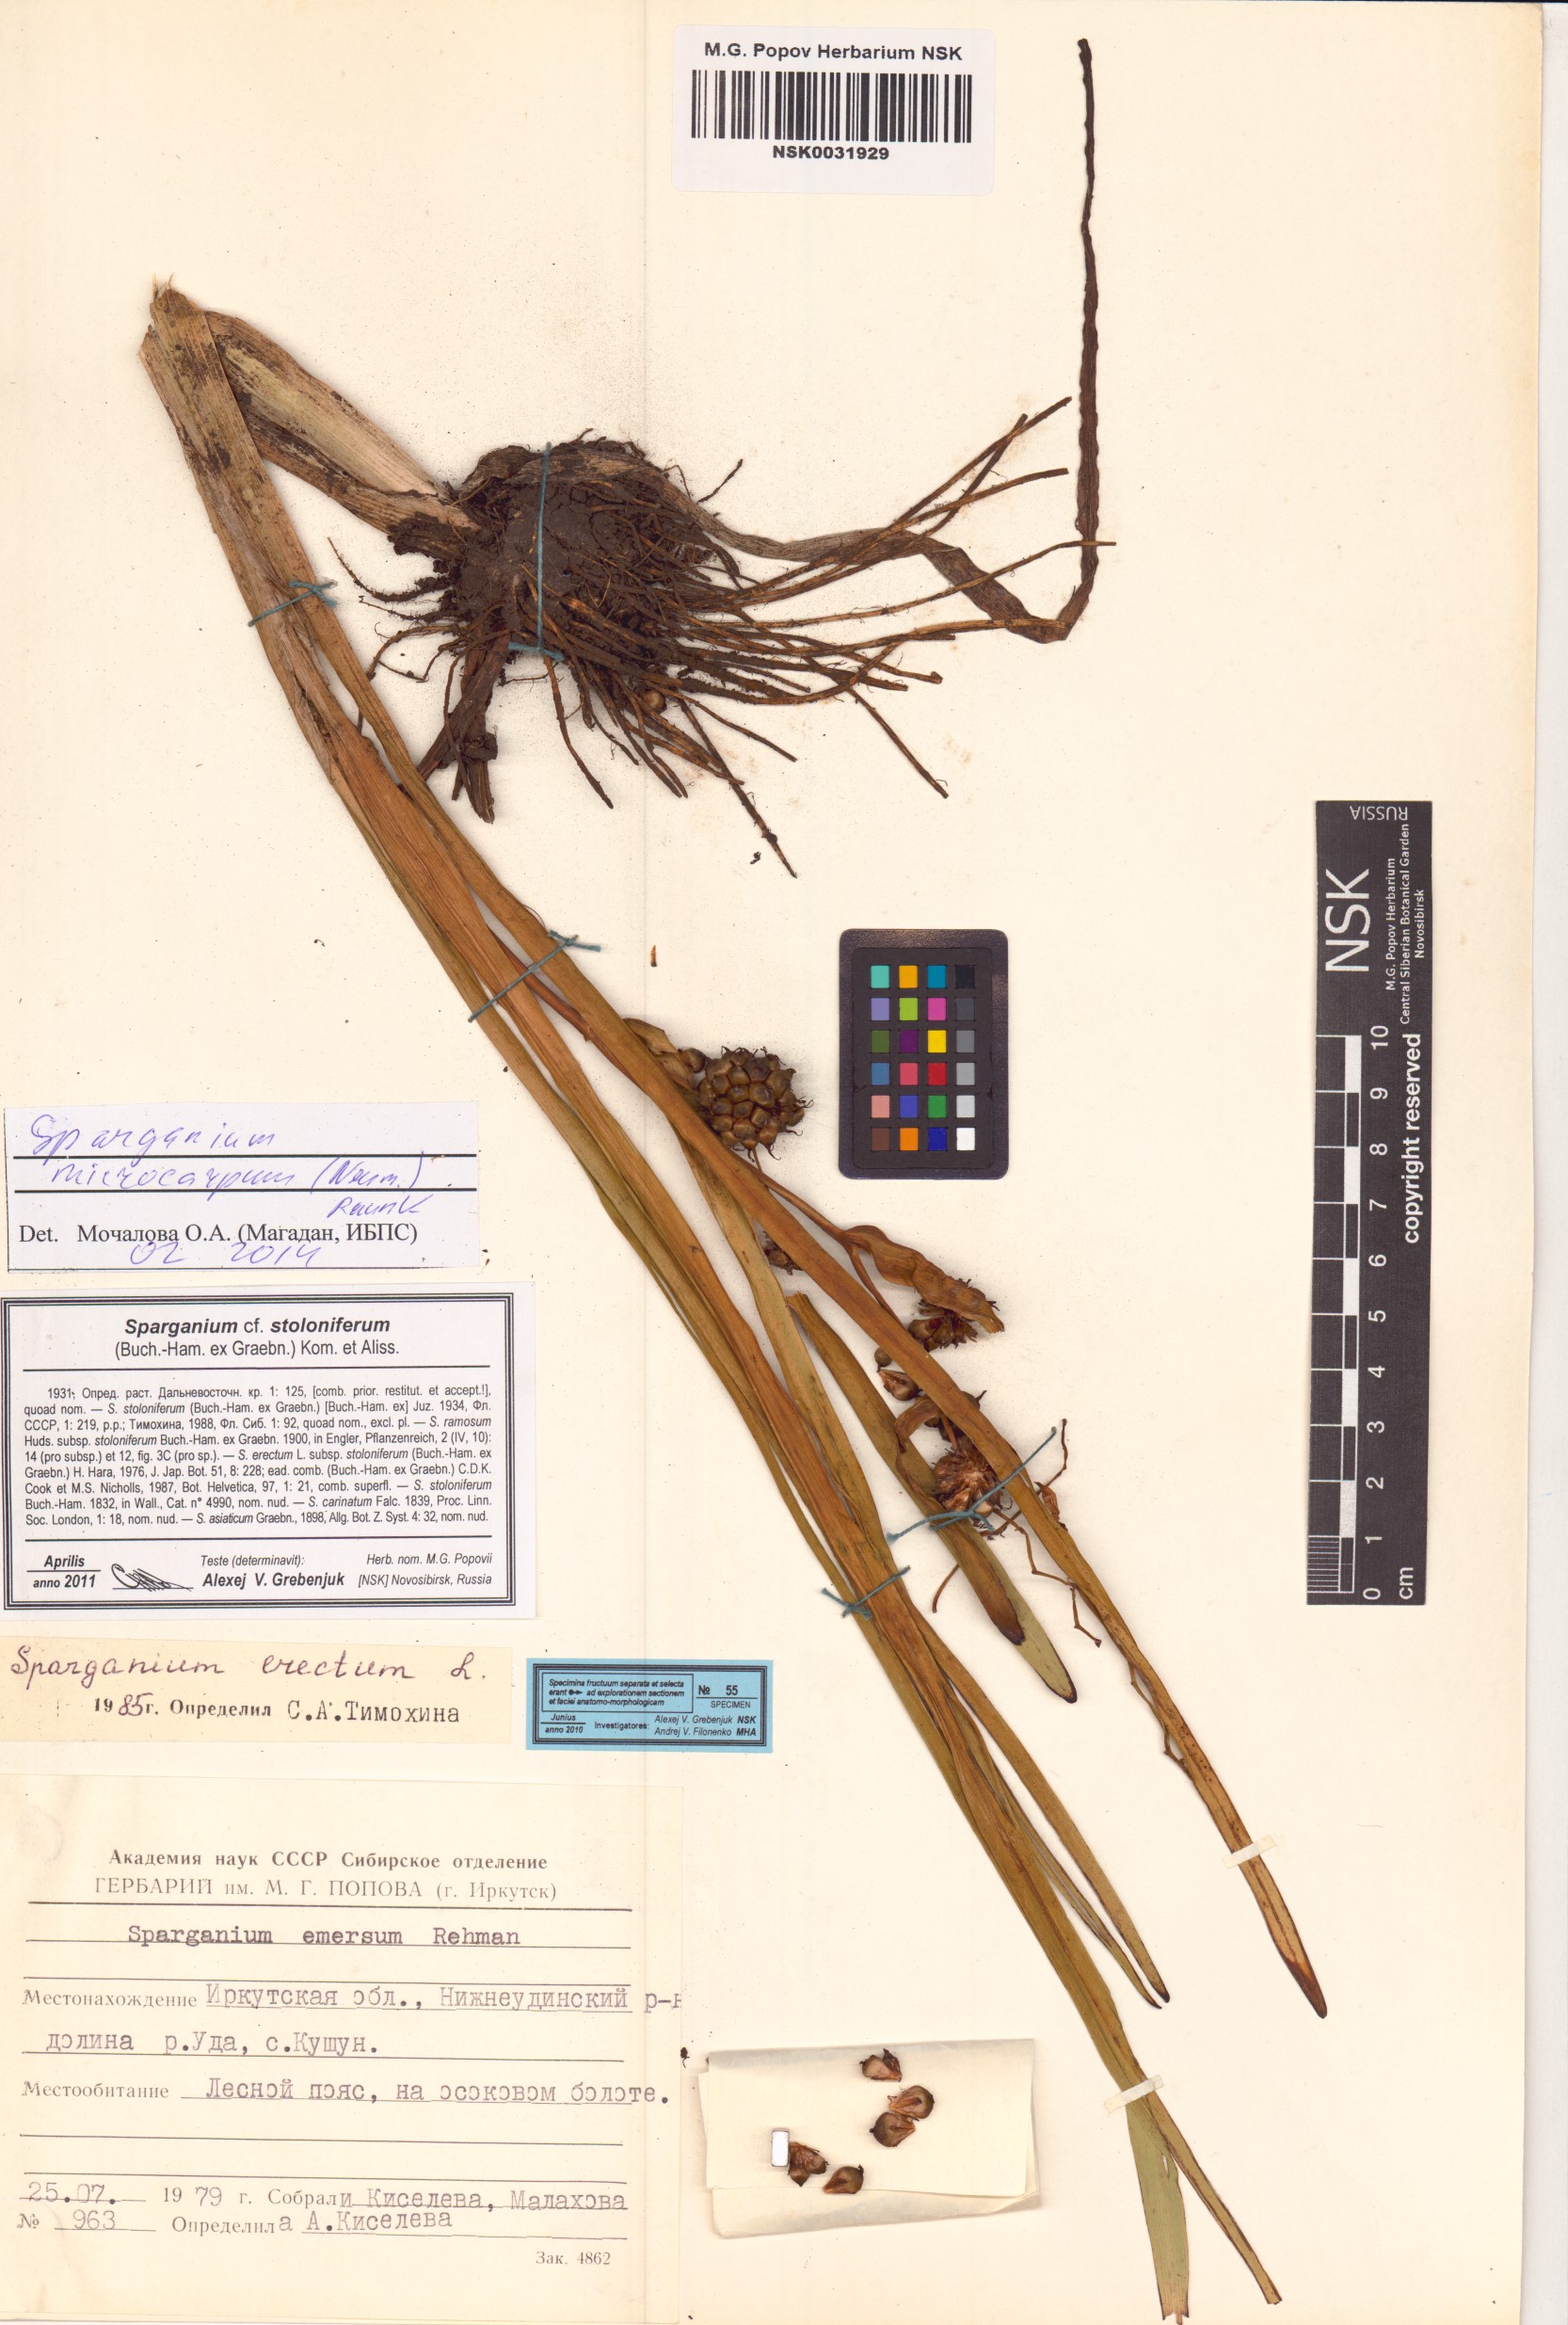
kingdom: Plantae
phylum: Tracheophyta
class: Liliopsida
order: Poales
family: Typhaceae
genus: Sparganium
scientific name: Sparganium erectum
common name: Branched bur-reed
